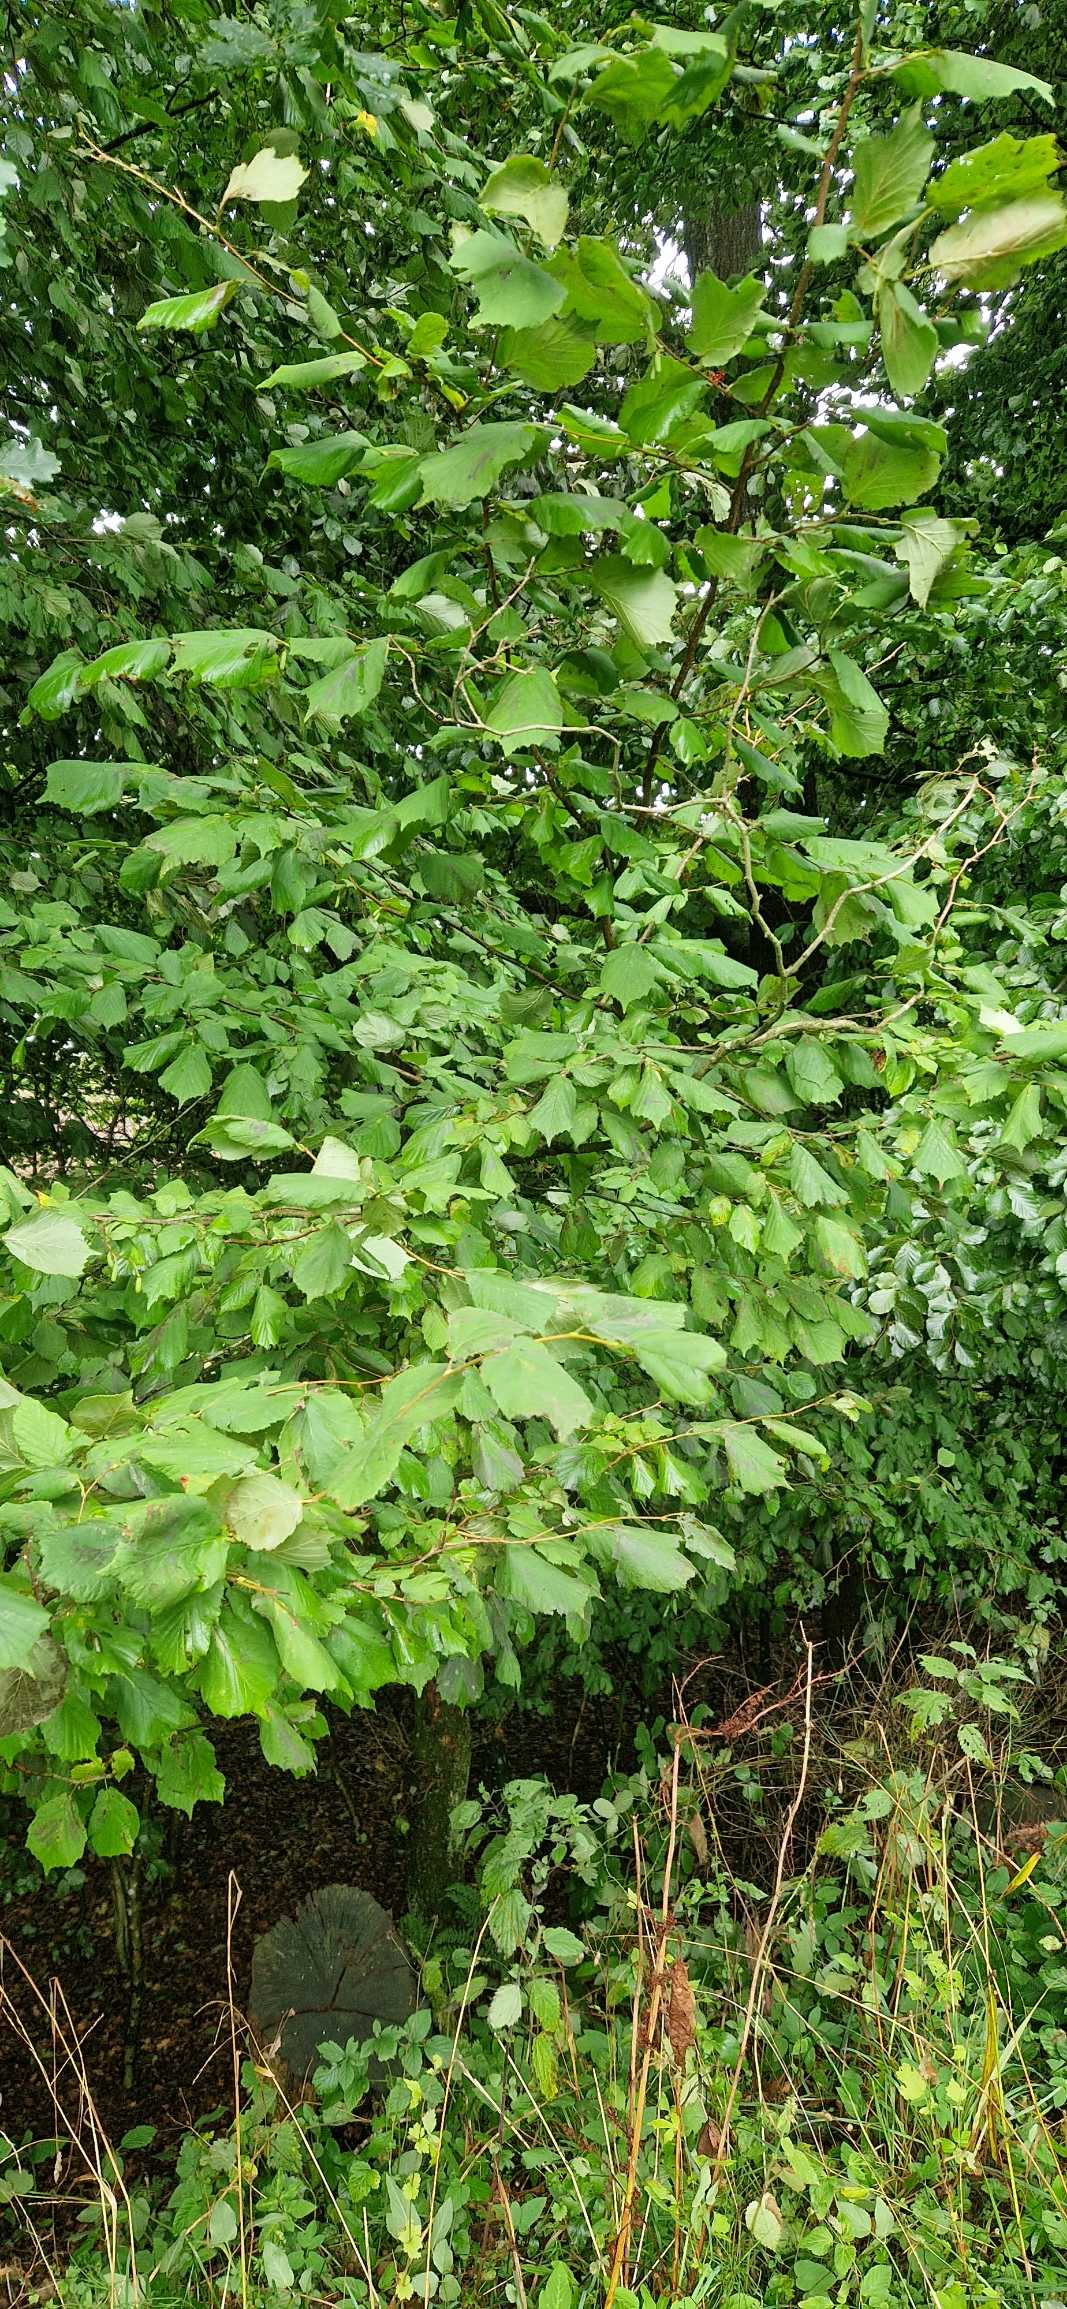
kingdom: Plantae
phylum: Tracheophyta
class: Magnoliopsida
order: Fagales
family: Betulaceae
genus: Corylus
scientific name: Corylus avellana
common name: Hassel
